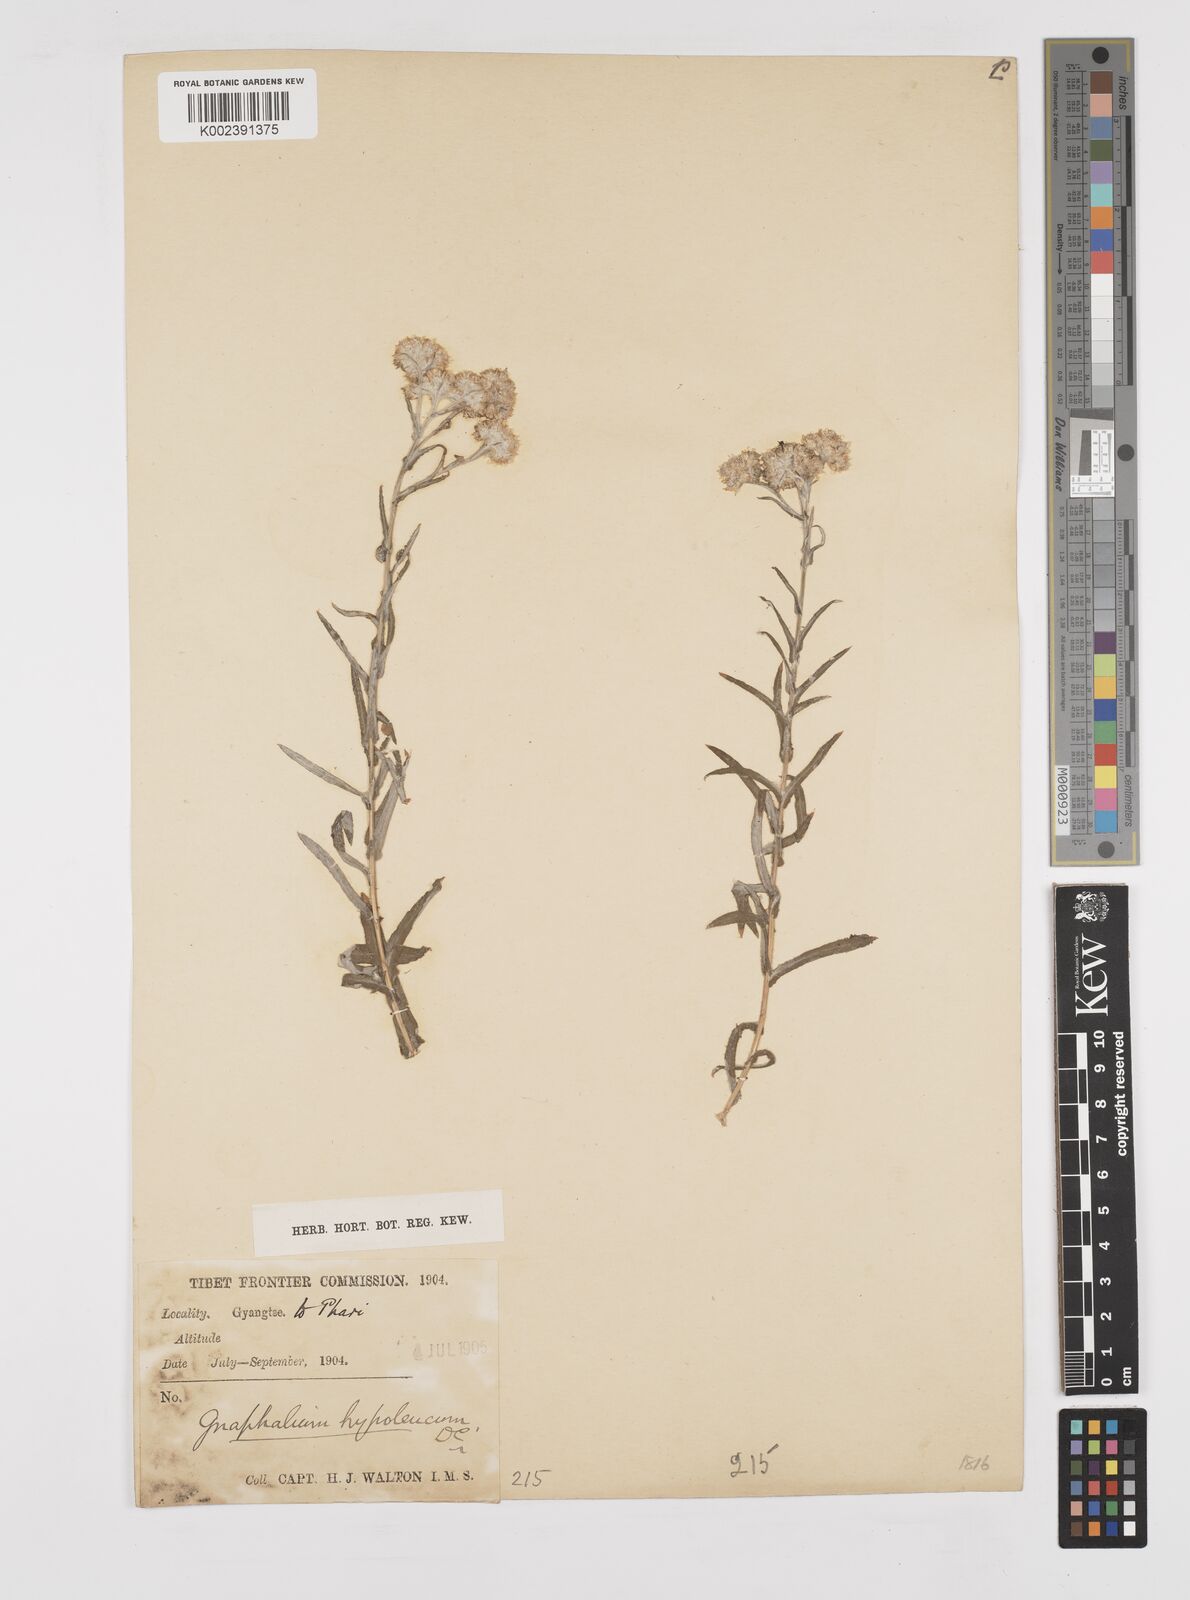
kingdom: Plantae
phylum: Tracheophyta
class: Magnoliopsida
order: Asterales
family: Asteraceae
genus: Pseudognaphalium
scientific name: Pseudognaphalium hypoleucum
